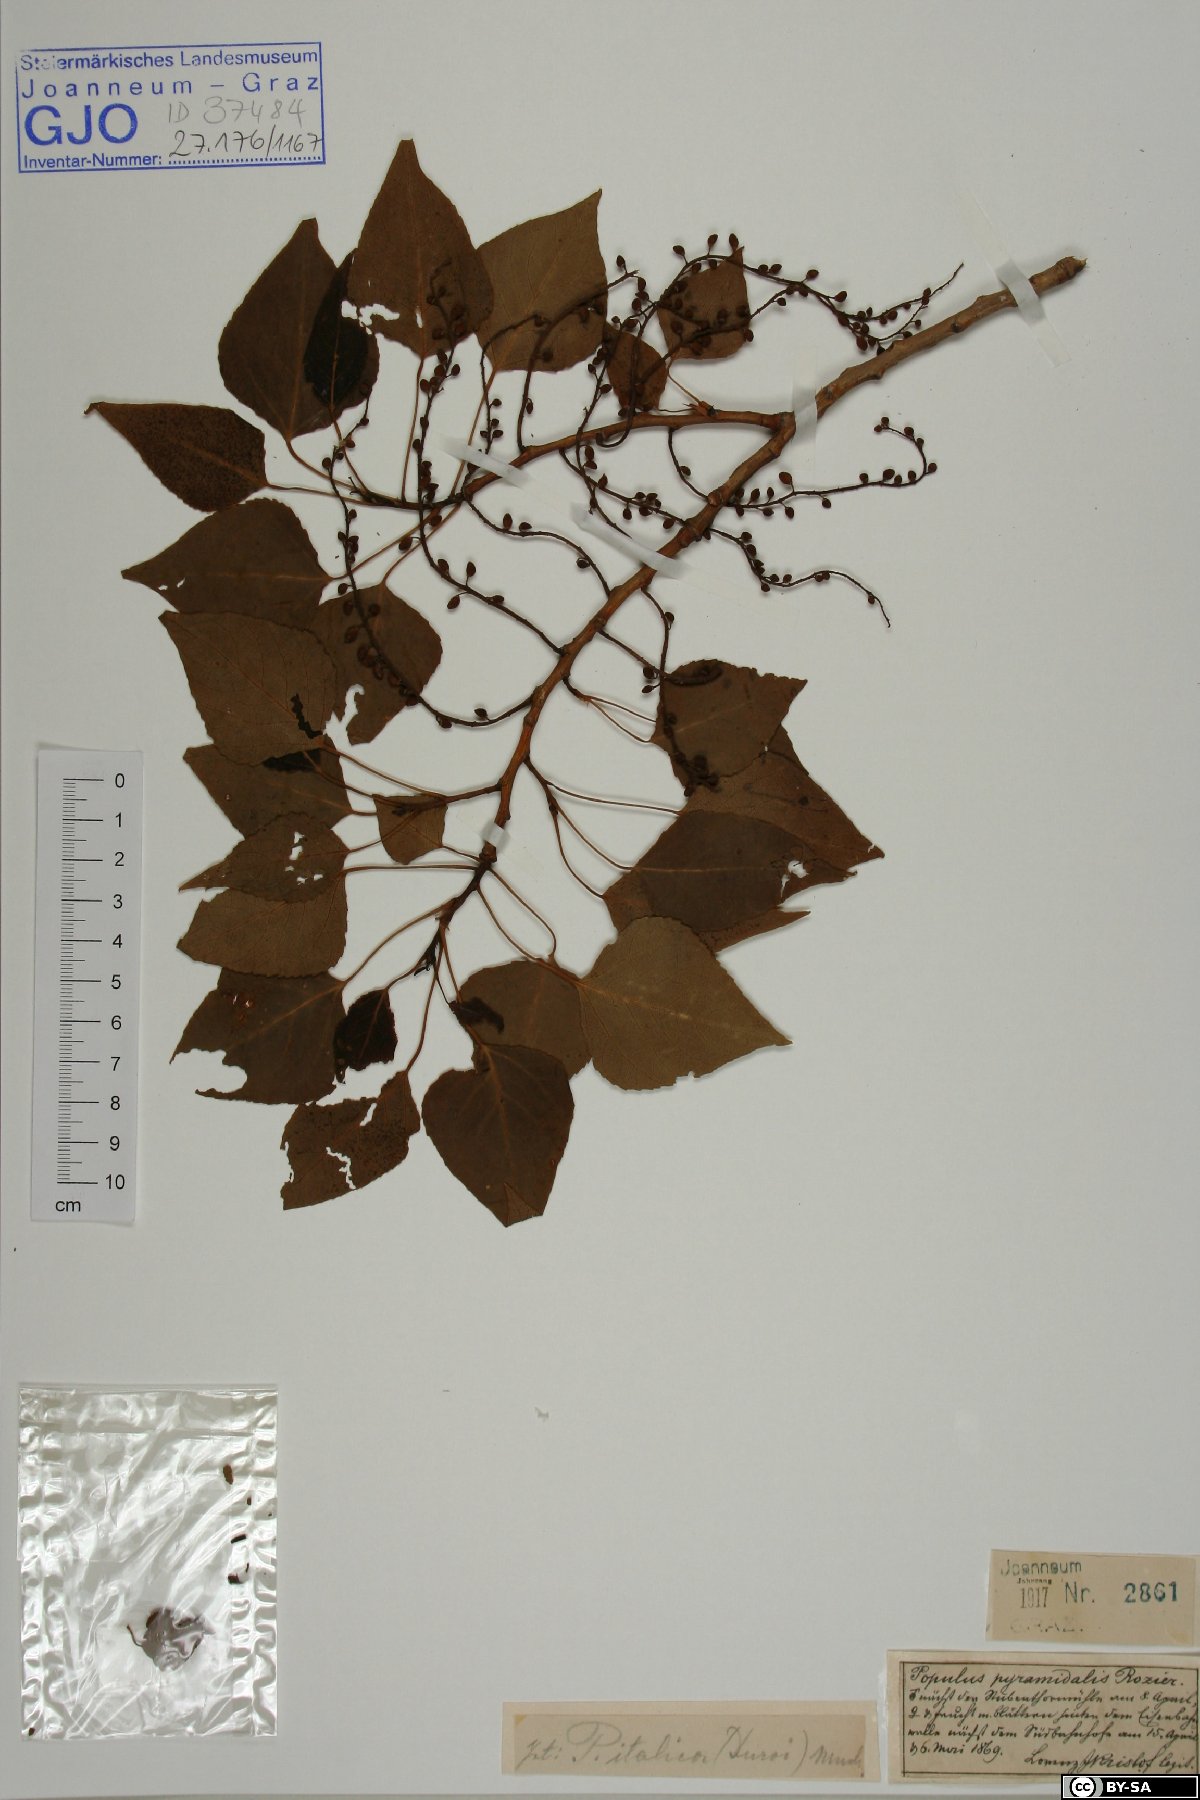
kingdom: Plantae
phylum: Tracheophyta
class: Magnoliopsida
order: Malpighiales
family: Salicaceae
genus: Populus
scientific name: Populus nigra
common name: Black poplar
